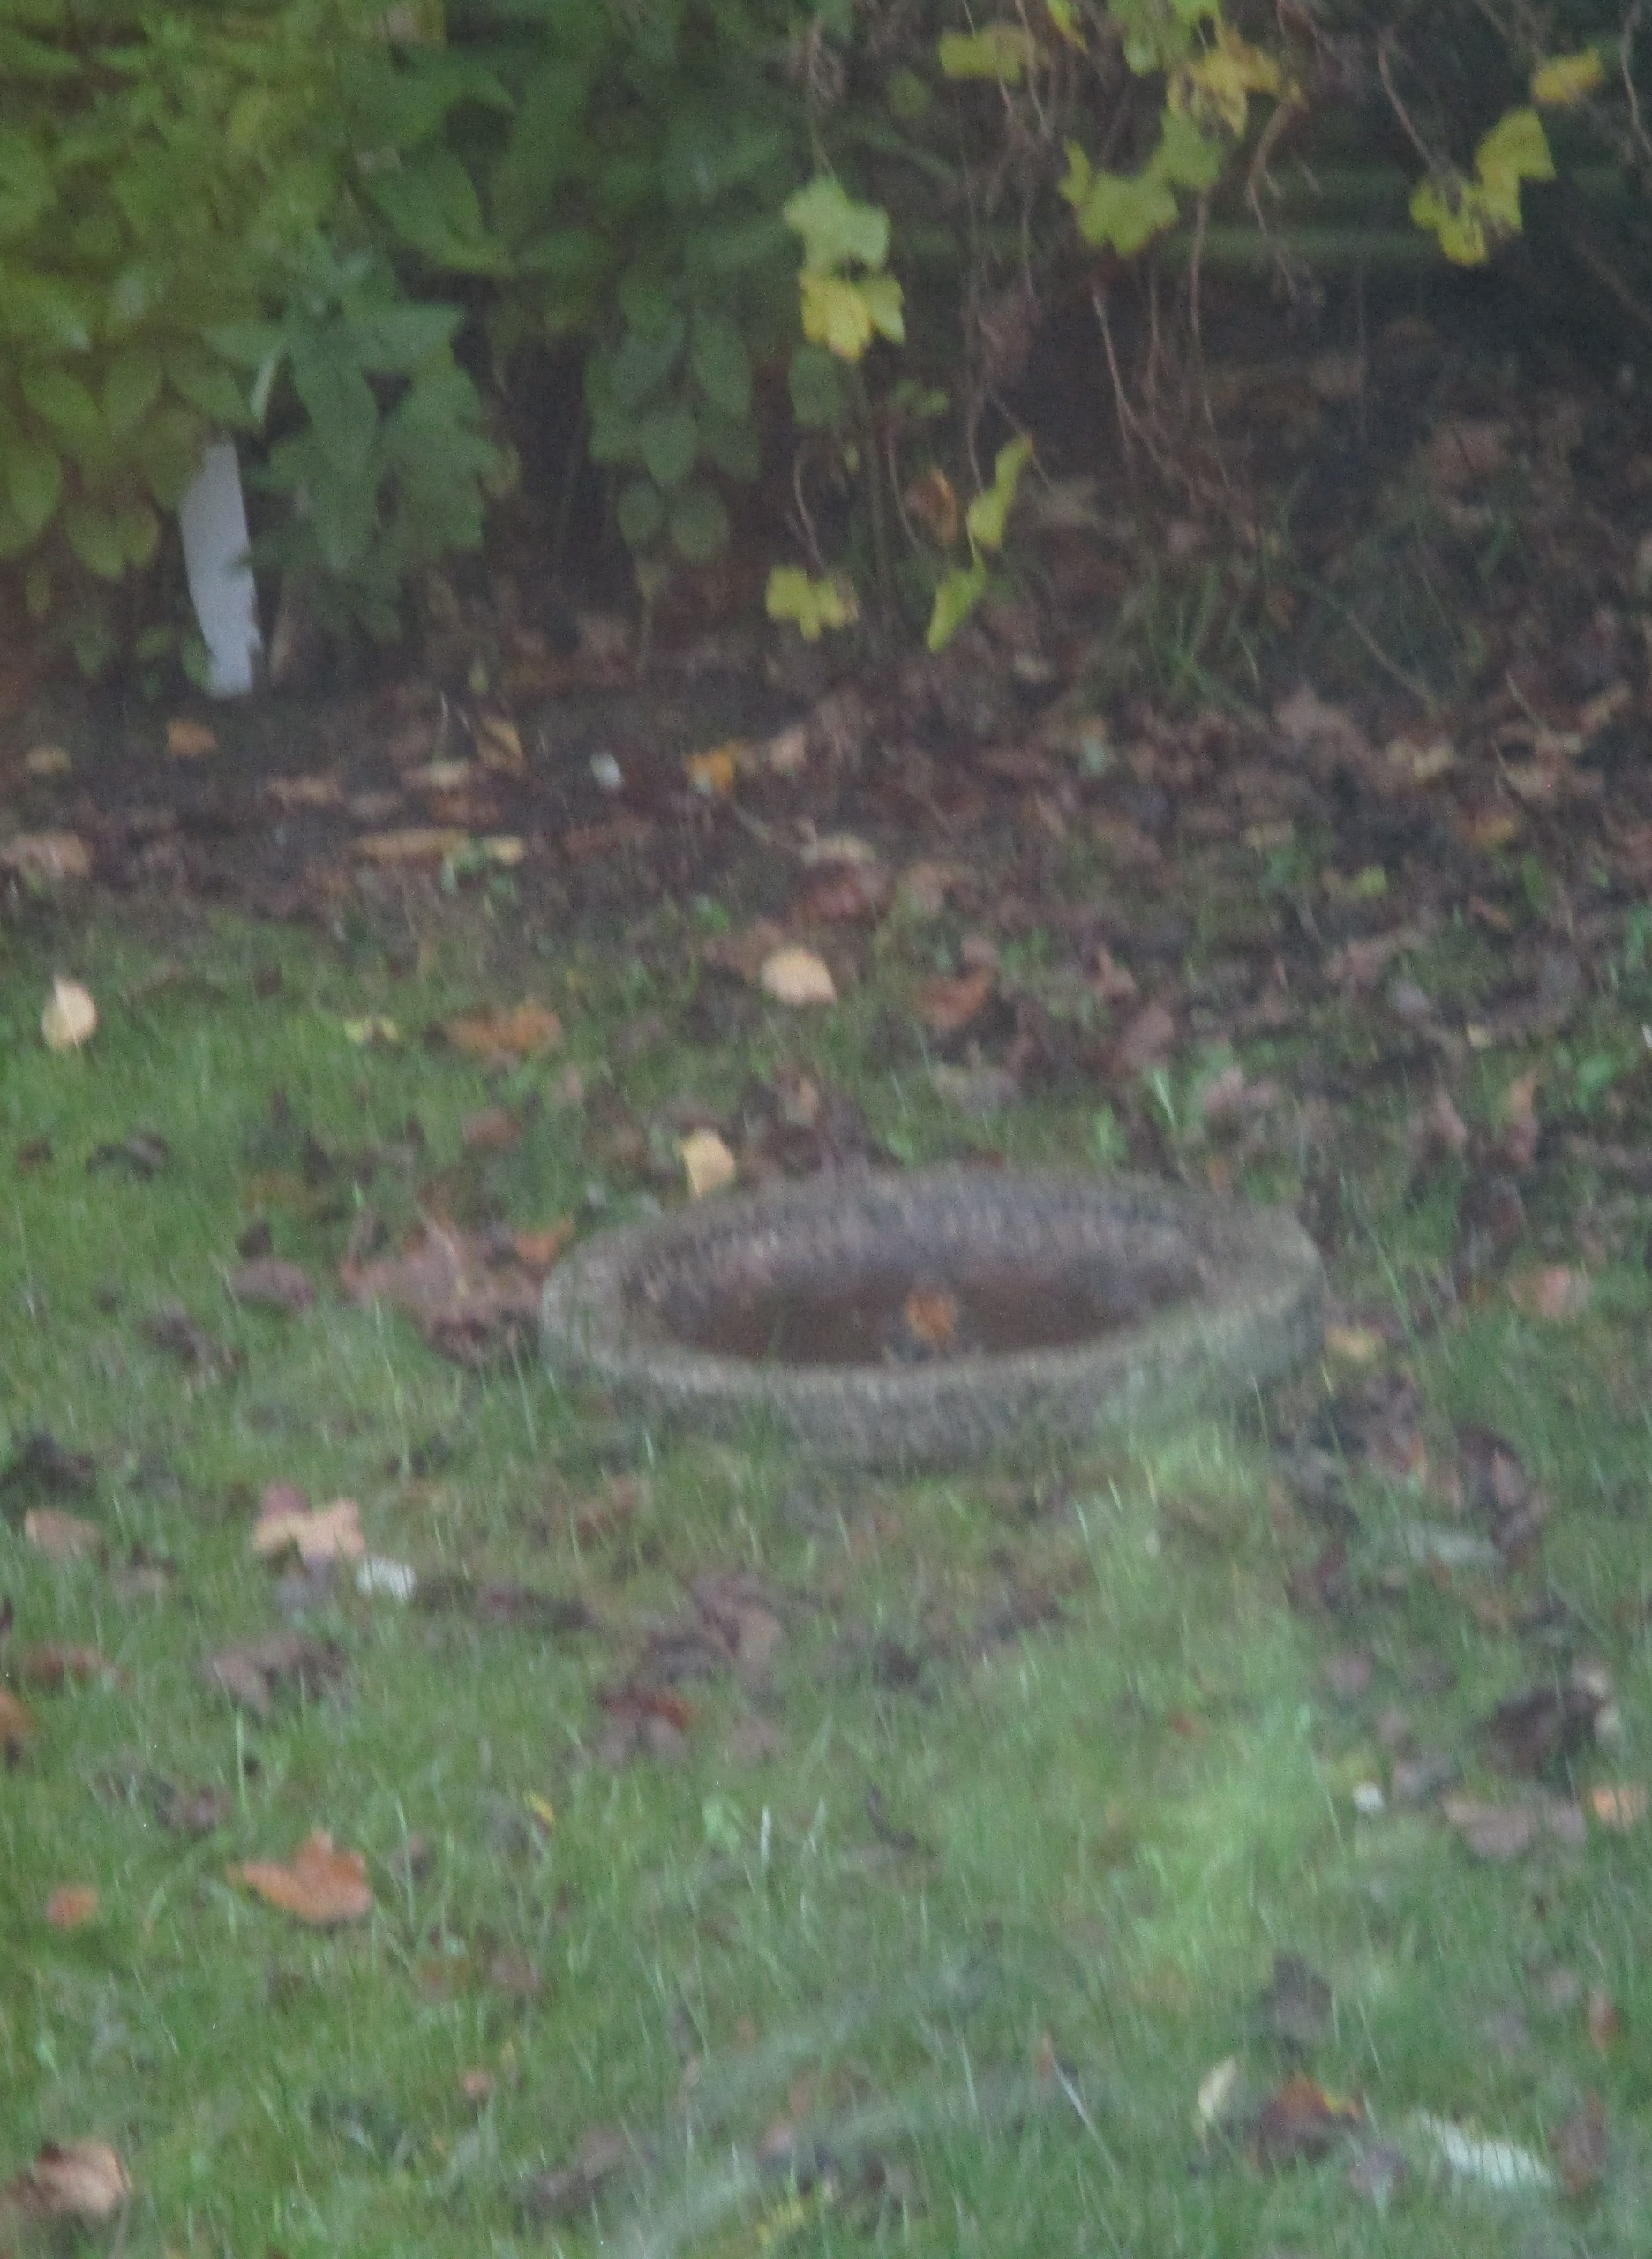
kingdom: Animalia
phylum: Chordata
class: Aves
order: Passeriformes
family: Muscicapidae
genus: Erithacus
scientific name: Erithacus rubecula
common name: Rødhals/rødkælk
